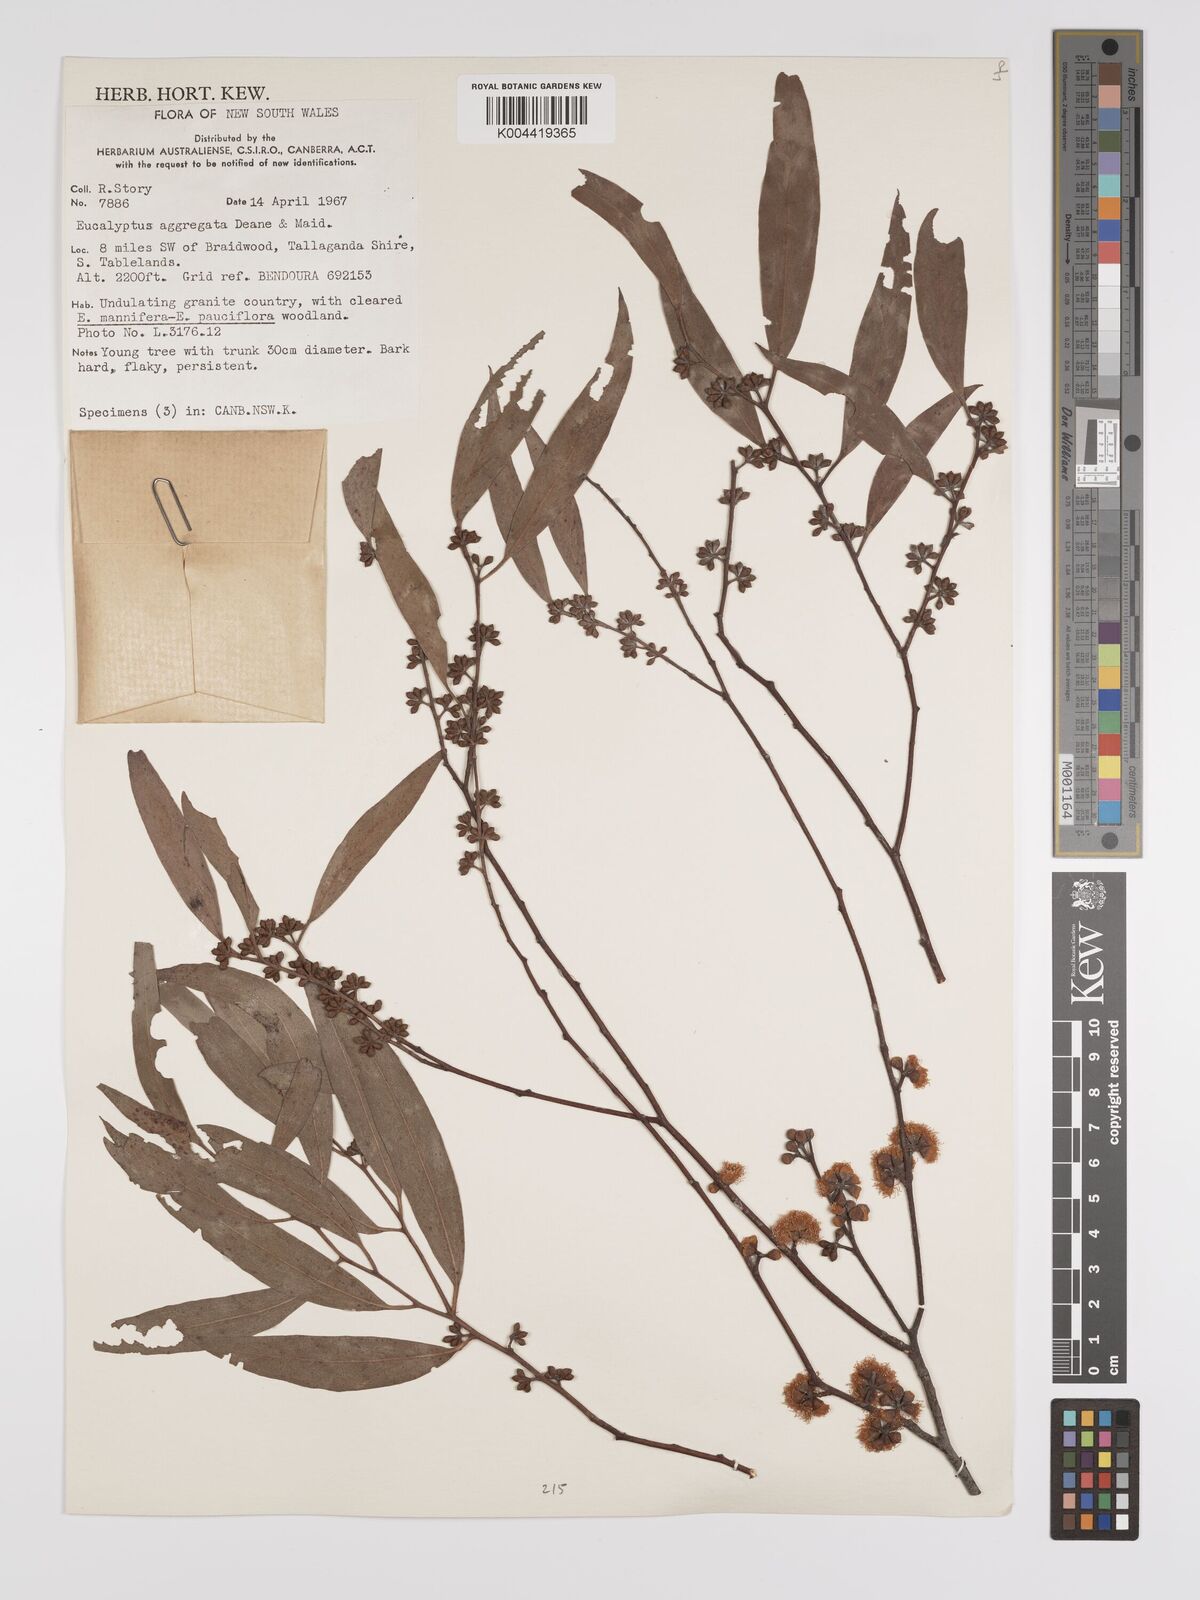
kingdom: Plantae
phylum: Tracheophyta
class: Magnoliopsida
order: Myrtales
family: Myrtaceae
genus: Eucalyptus
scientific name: Eucalyptus aggregata
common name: Black gum
